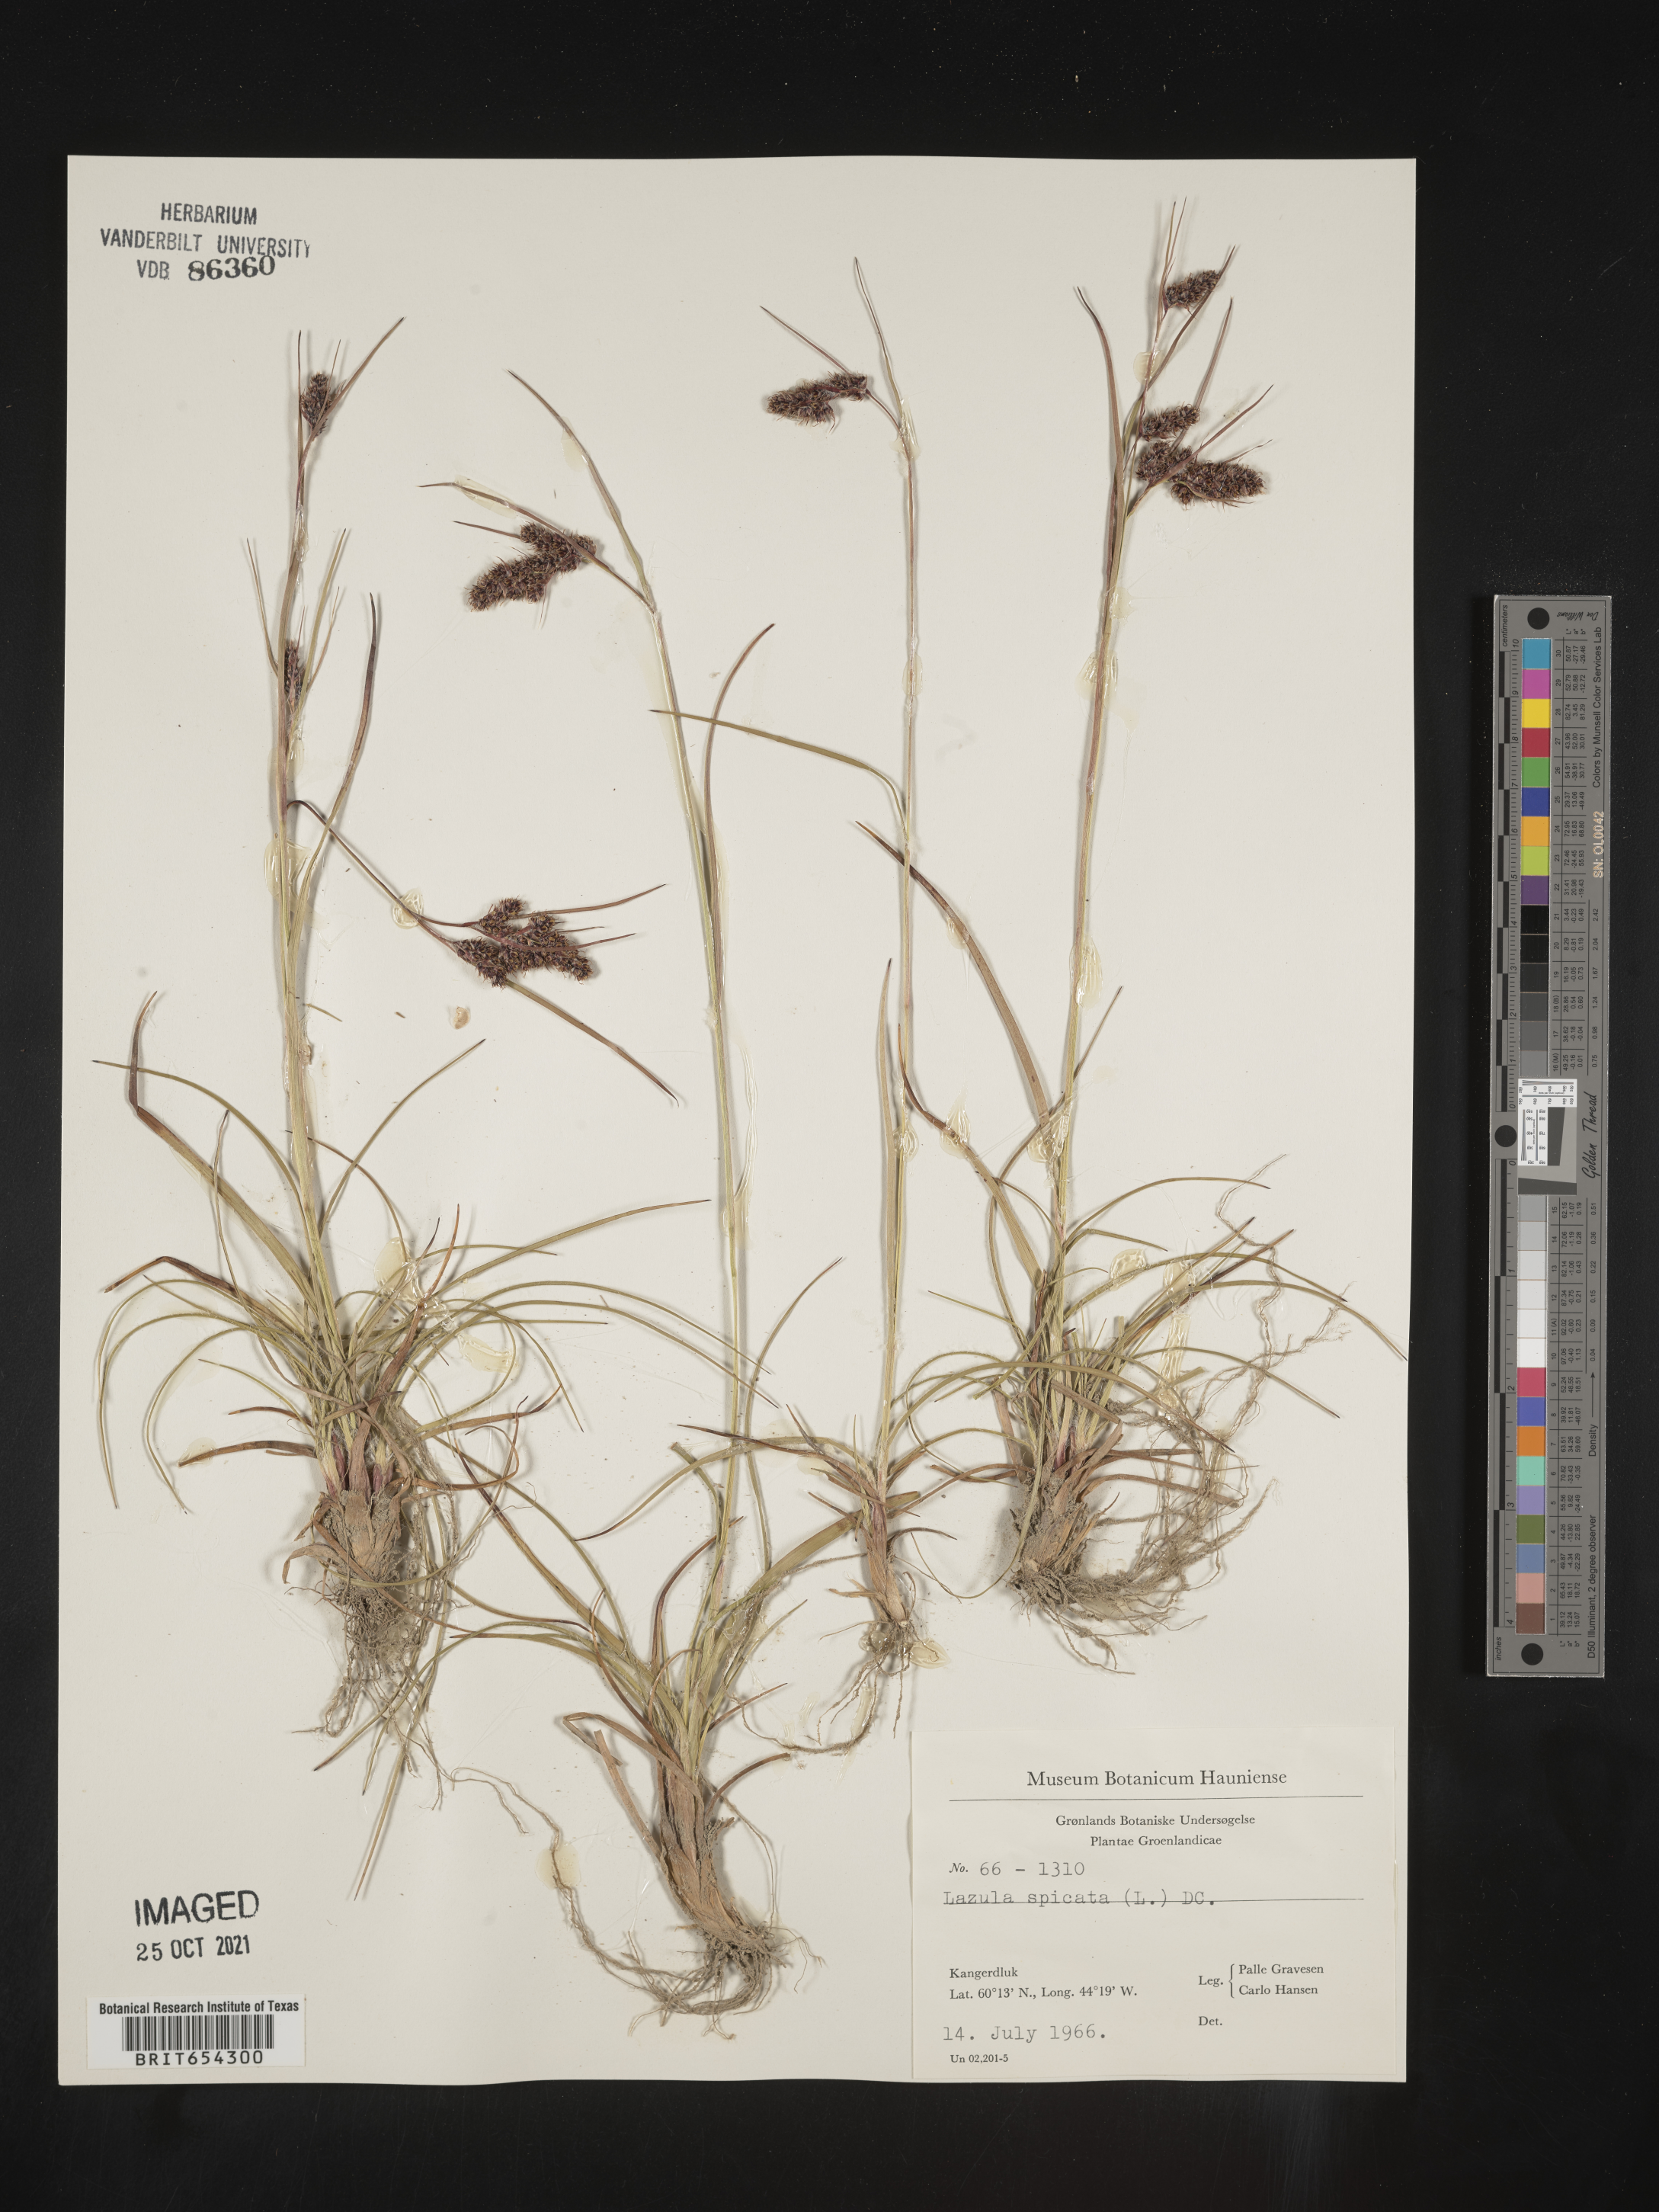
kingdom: Plantae
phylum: Tracheophyta
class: Liliopsida
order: Poales
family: Juncaceae
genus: Luzula
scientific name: Luzula
